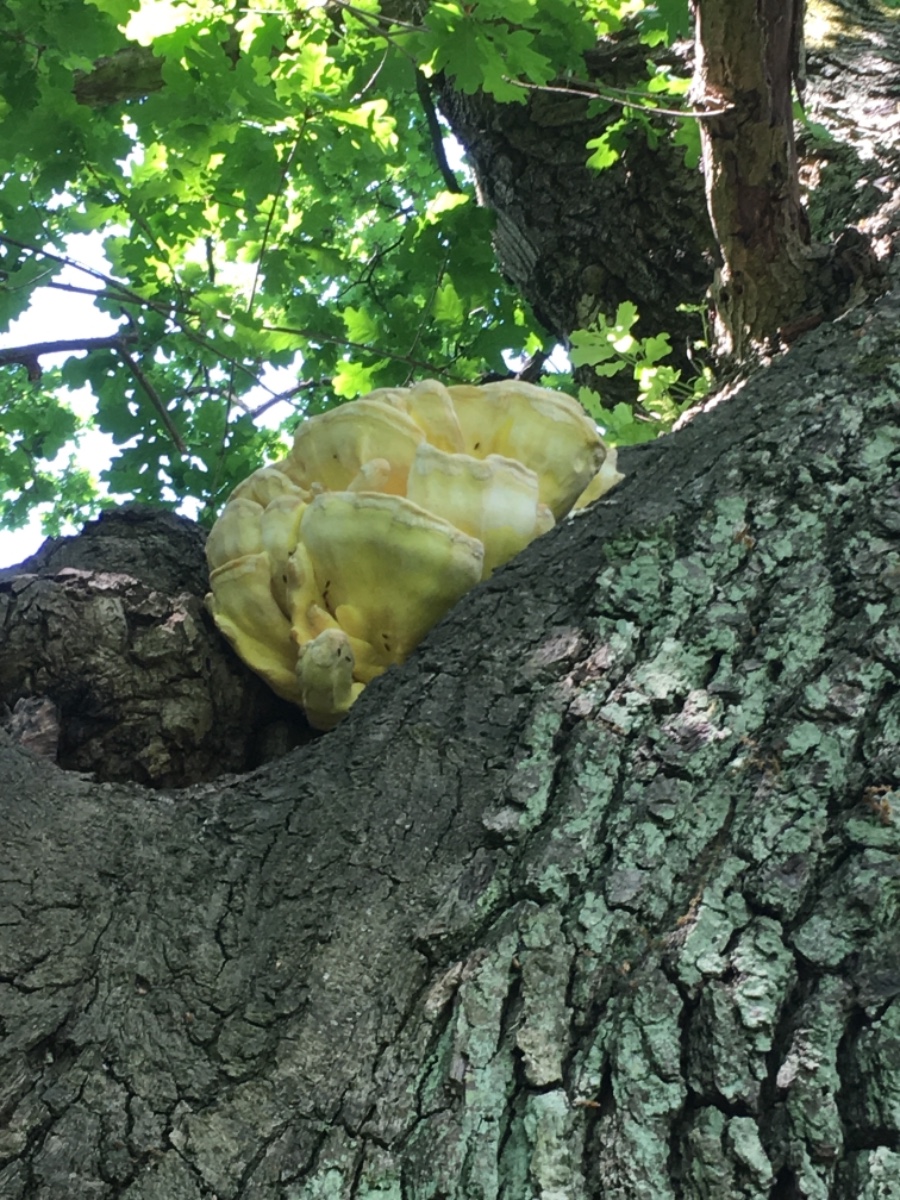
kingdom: Fungi
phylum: Basidiomycota
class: Agaricomycetes
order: Polyporales
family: Laetiporaceae
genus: Laetiporus
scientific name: Laetiporus sulphureus
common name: svovlporesvamp
